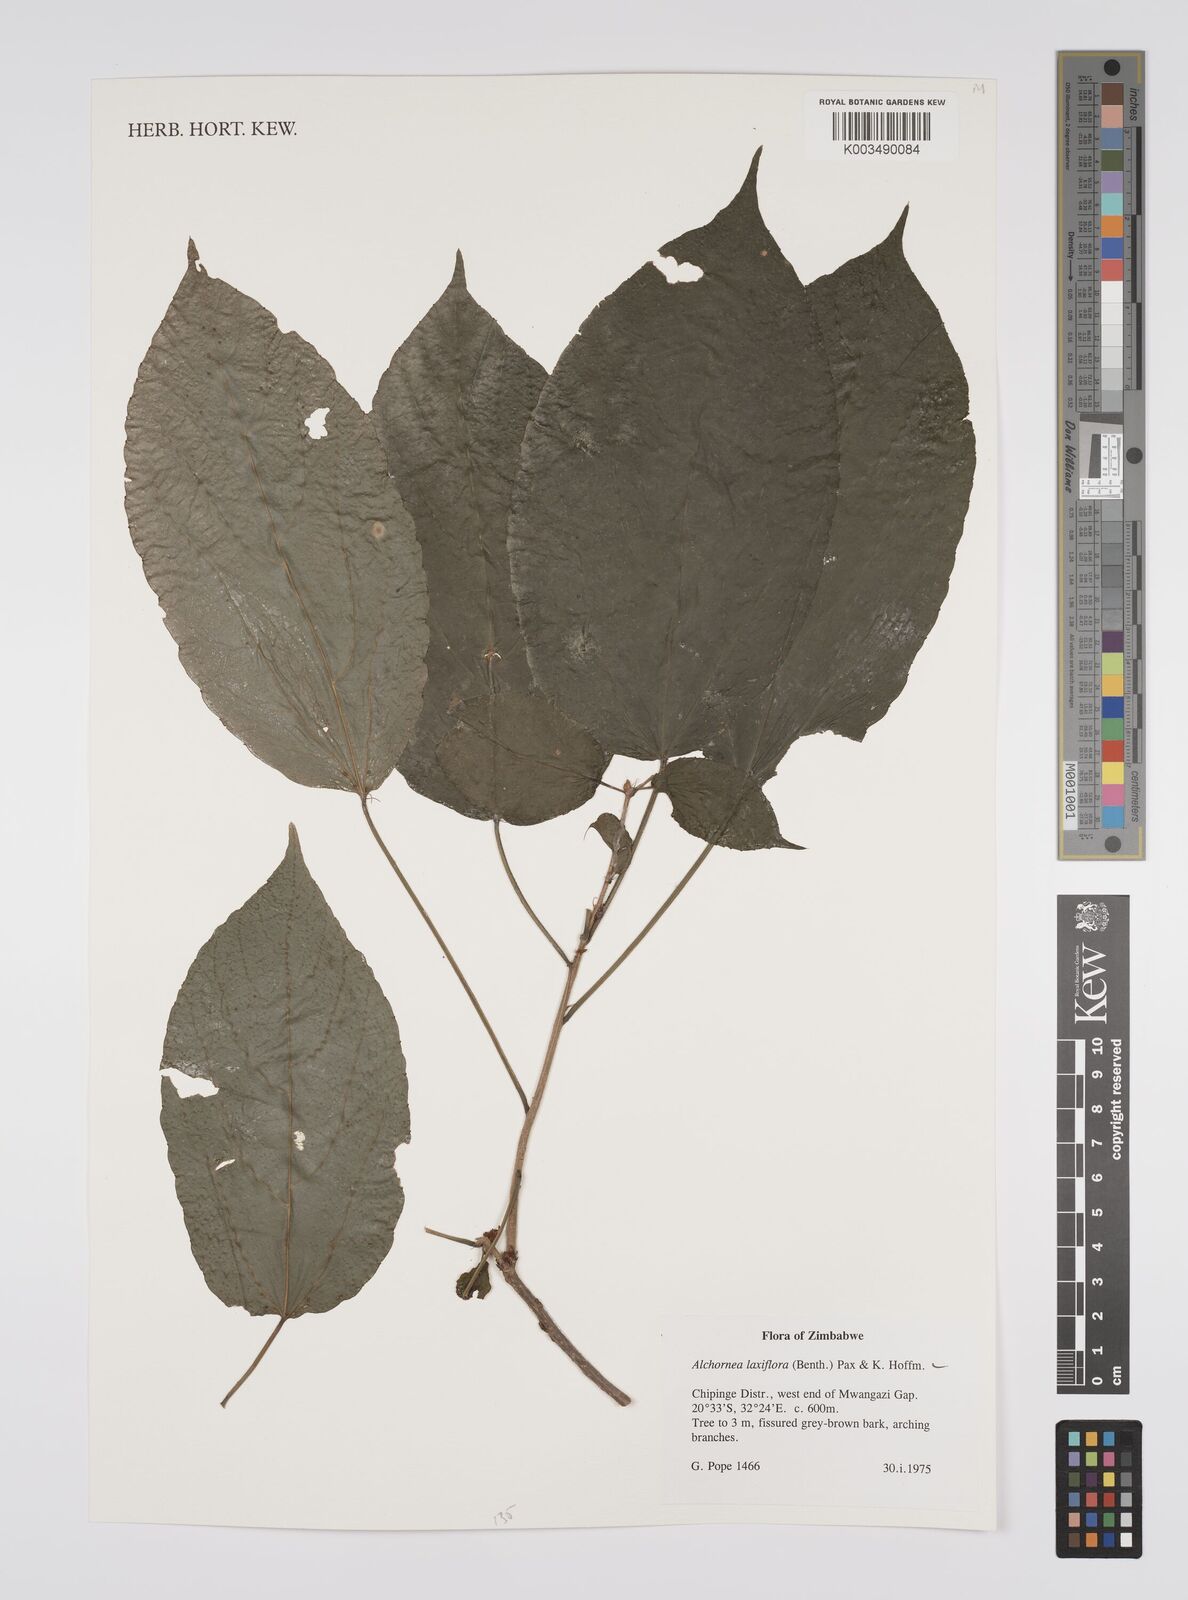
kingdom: Plantae
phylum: Tracheophyta
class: Magnoliopsida
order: Malpighiales
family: Euphorbiaceae
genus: Alchornea
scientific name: Alchornea laxiflora
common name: Lowveld bead-string
